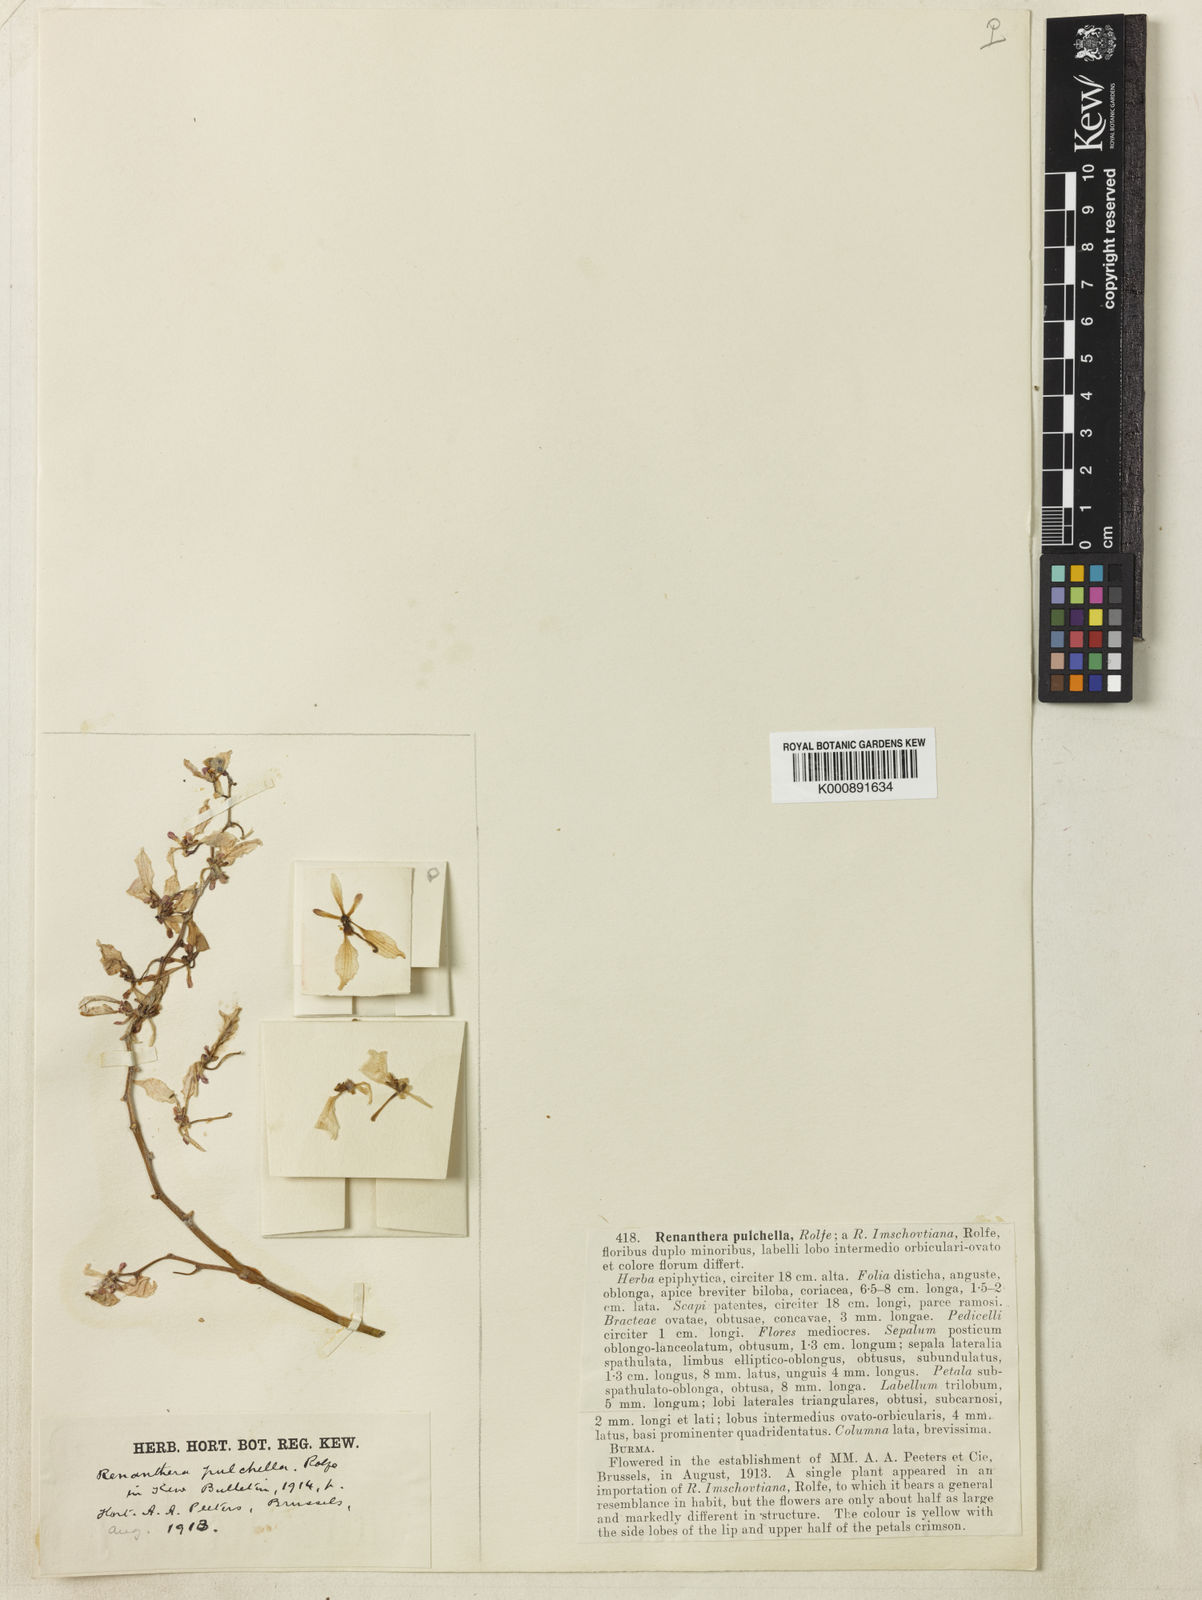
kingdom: Plantae
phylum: Tracheophyta
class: Liliopsida
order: Asparagales
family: Orchidaceae
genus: Renanthera
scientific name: Renanthera pulchella
